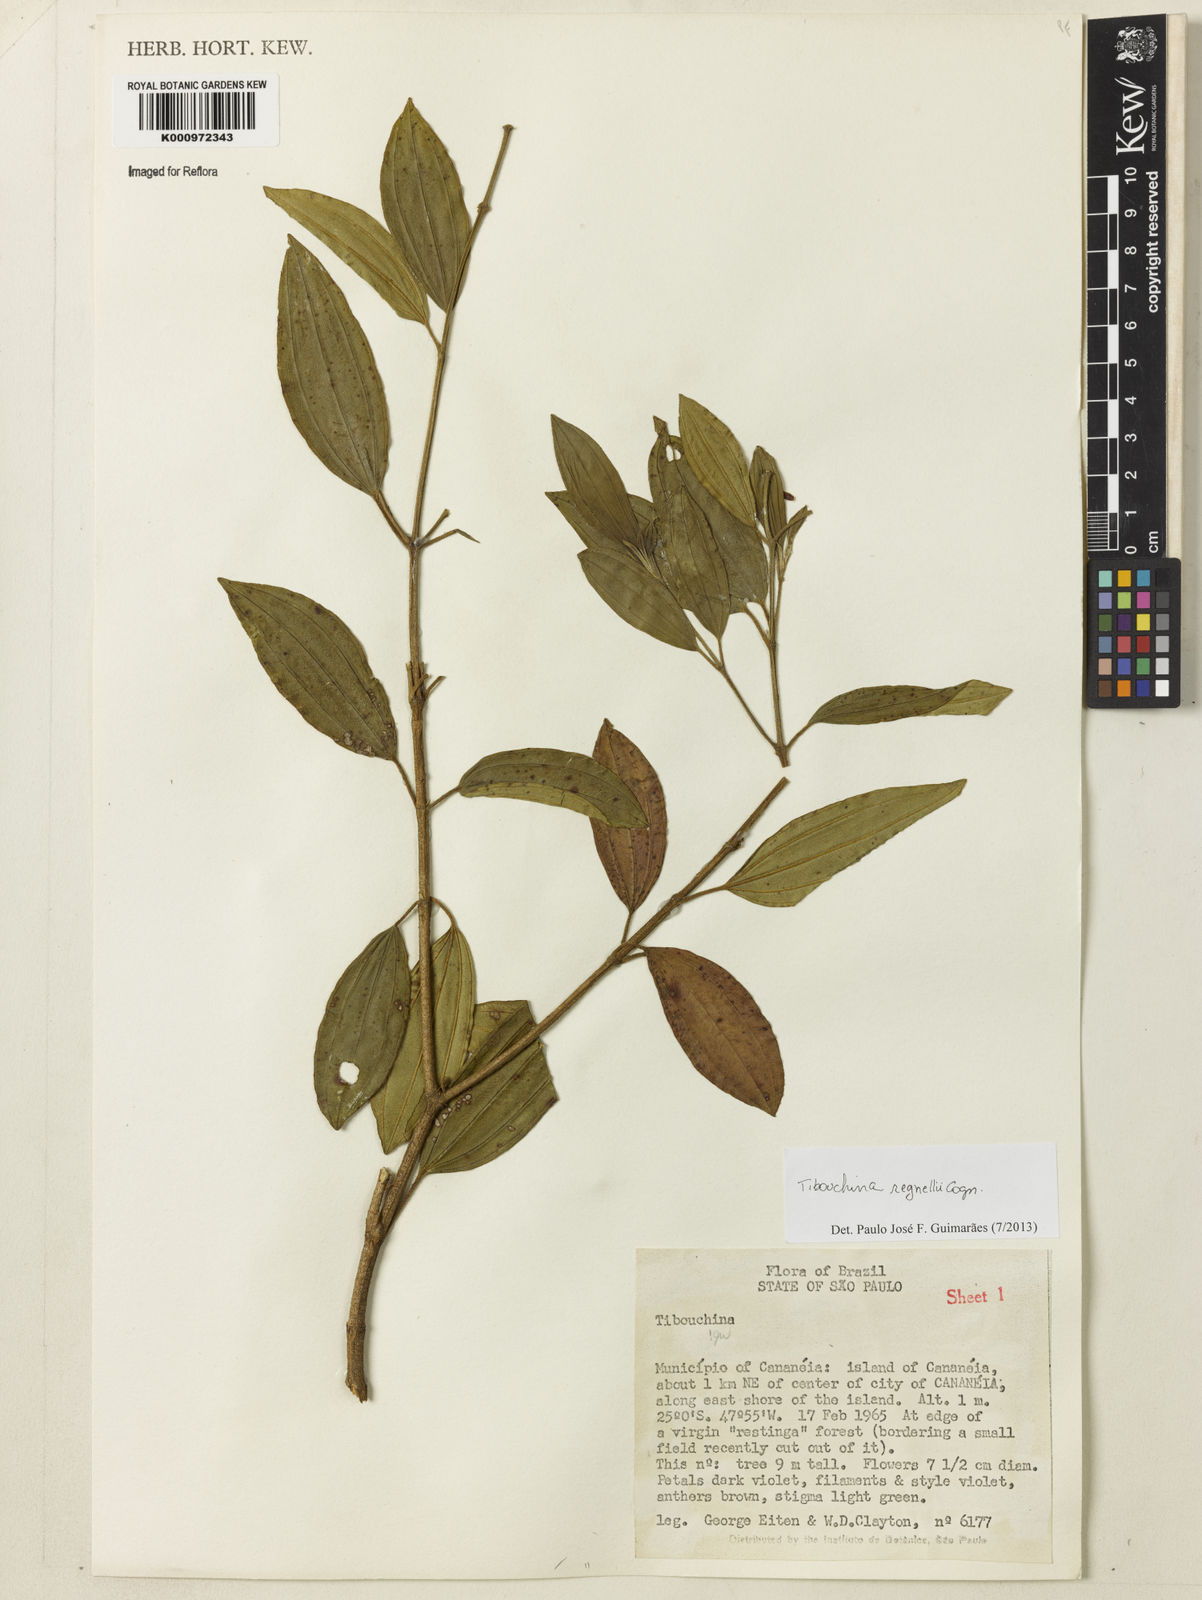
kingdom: Plantae
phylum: Tracheophyta
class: Magnoliopsida
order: Myrtales
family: Melastomataceae
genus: Pleroma
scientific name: Pleroma andersregnellii
